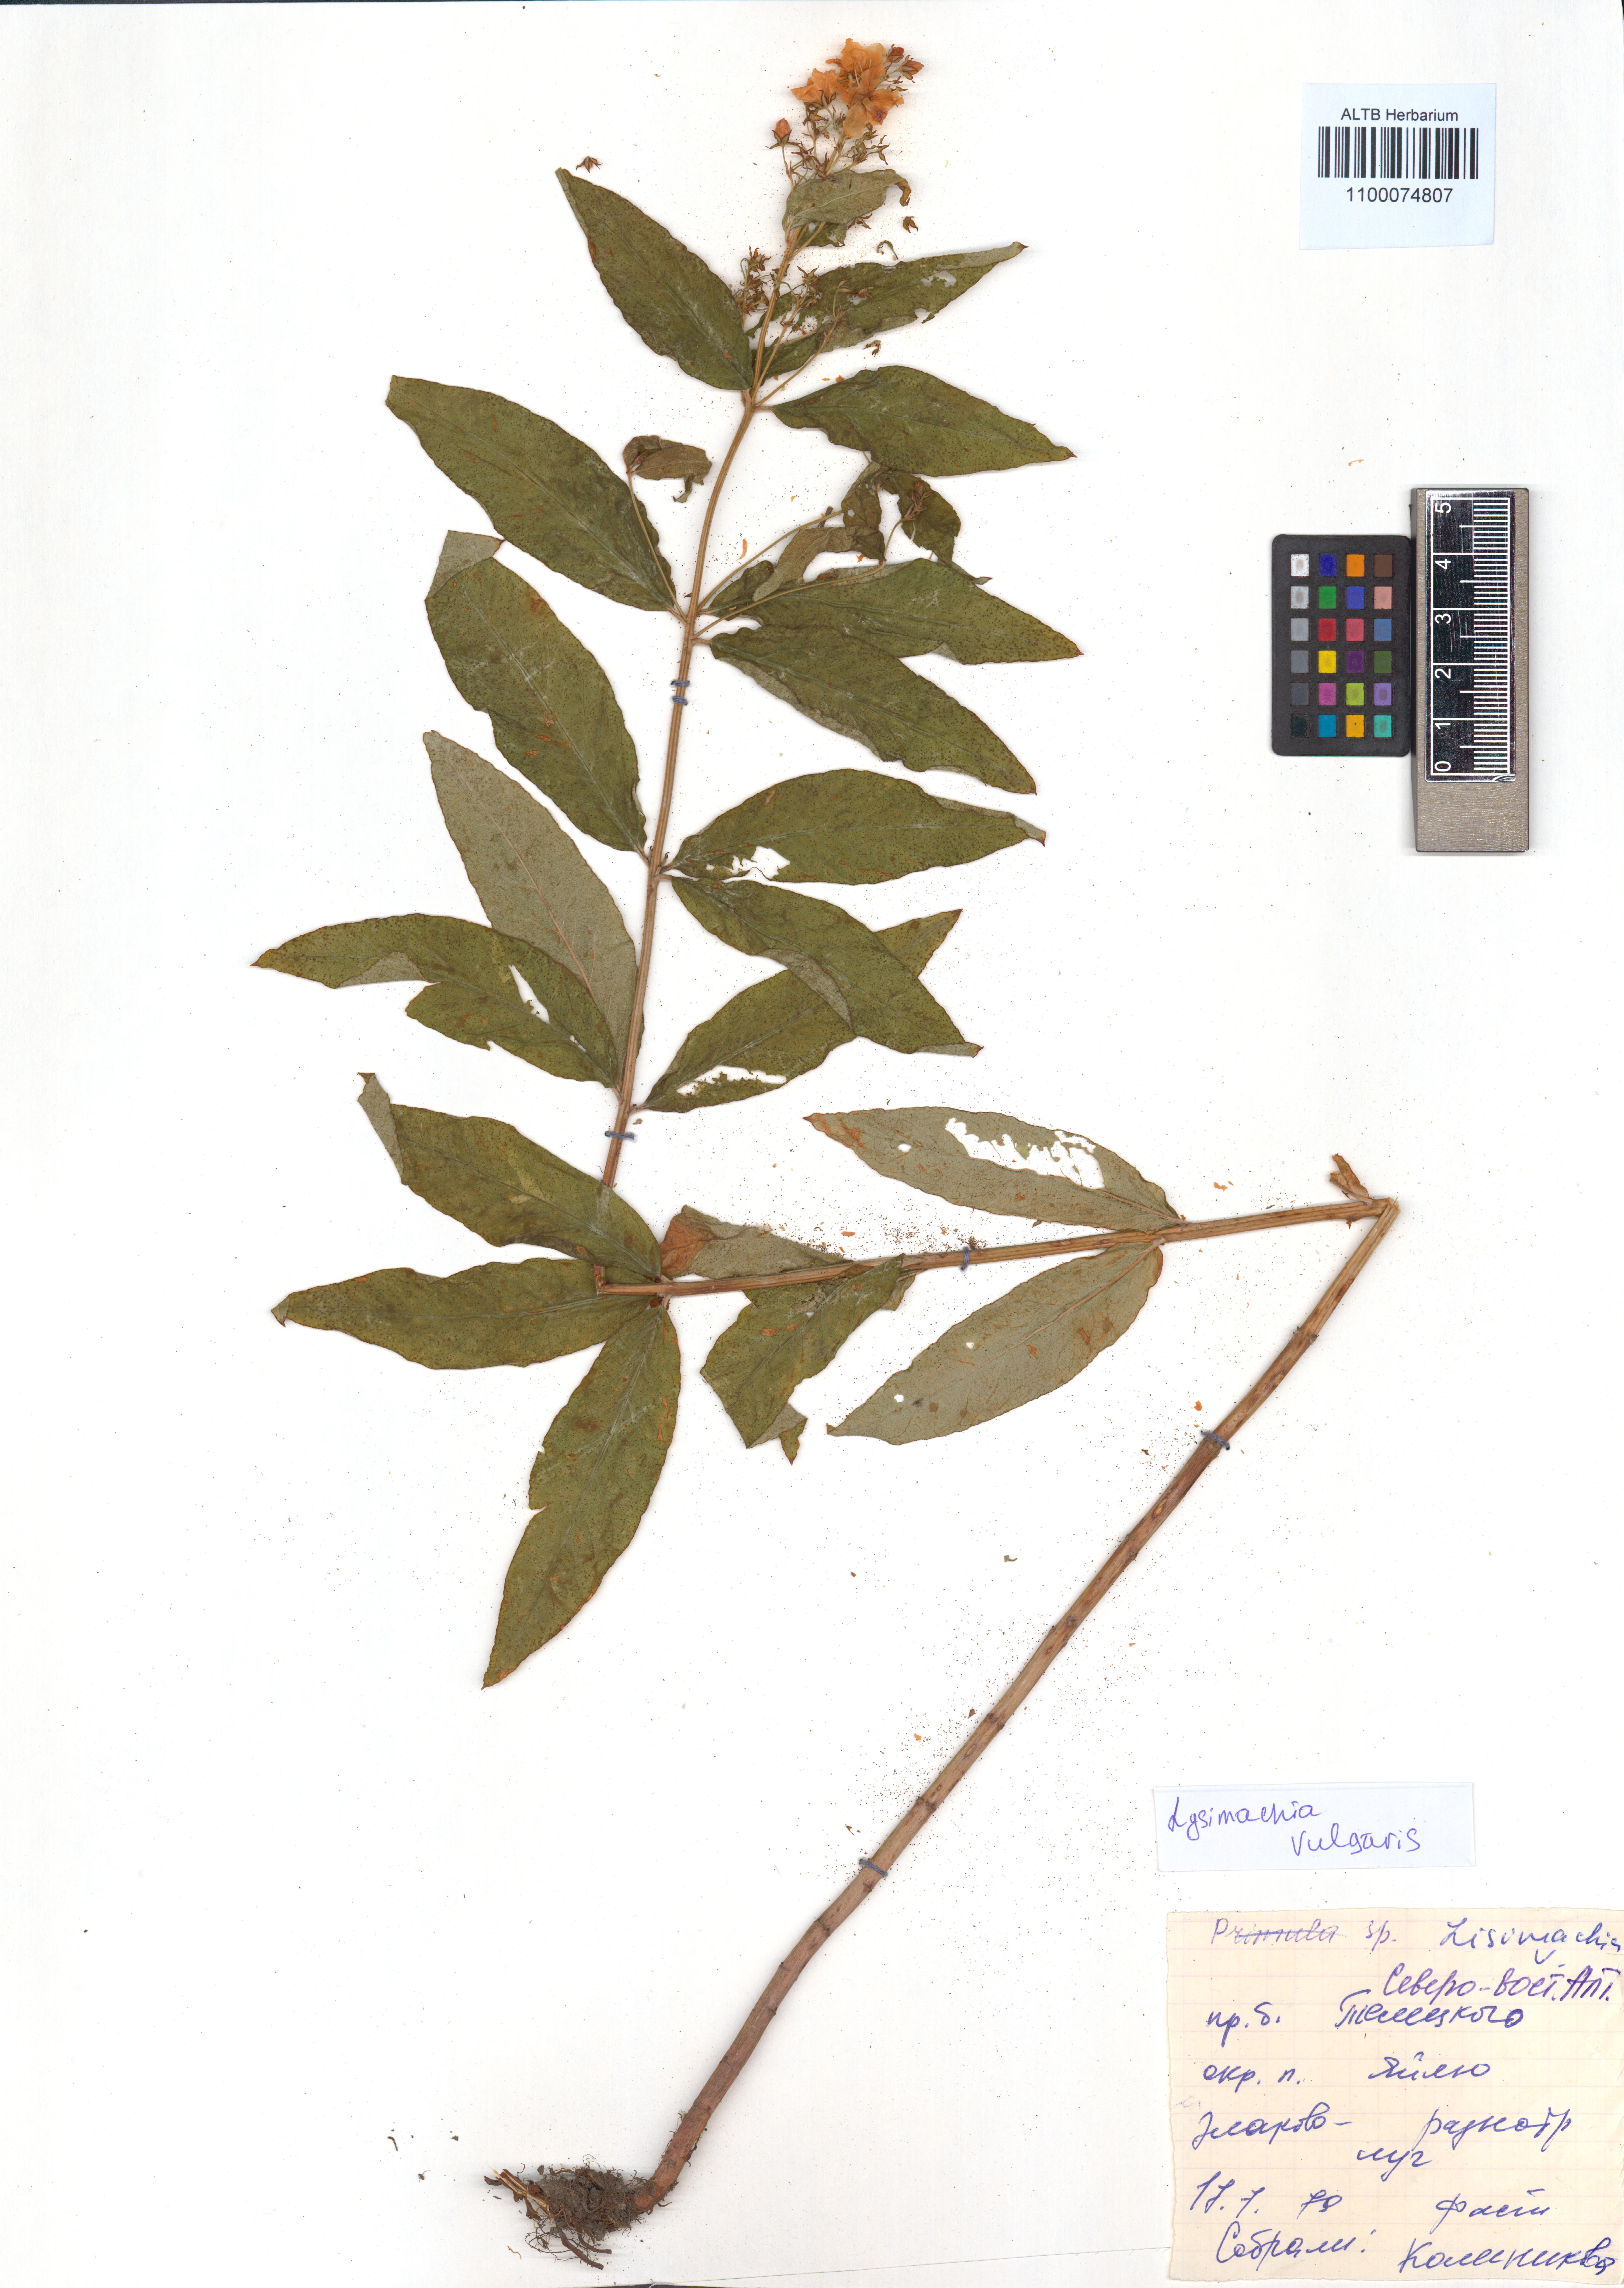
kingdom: Plantae
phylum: Tracheophyta
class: Magnoliopsida
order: Ericales
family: Primulaceae
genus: Lysimachia
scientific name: Lysimachia vulgaris
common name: Yellow loosestrife
